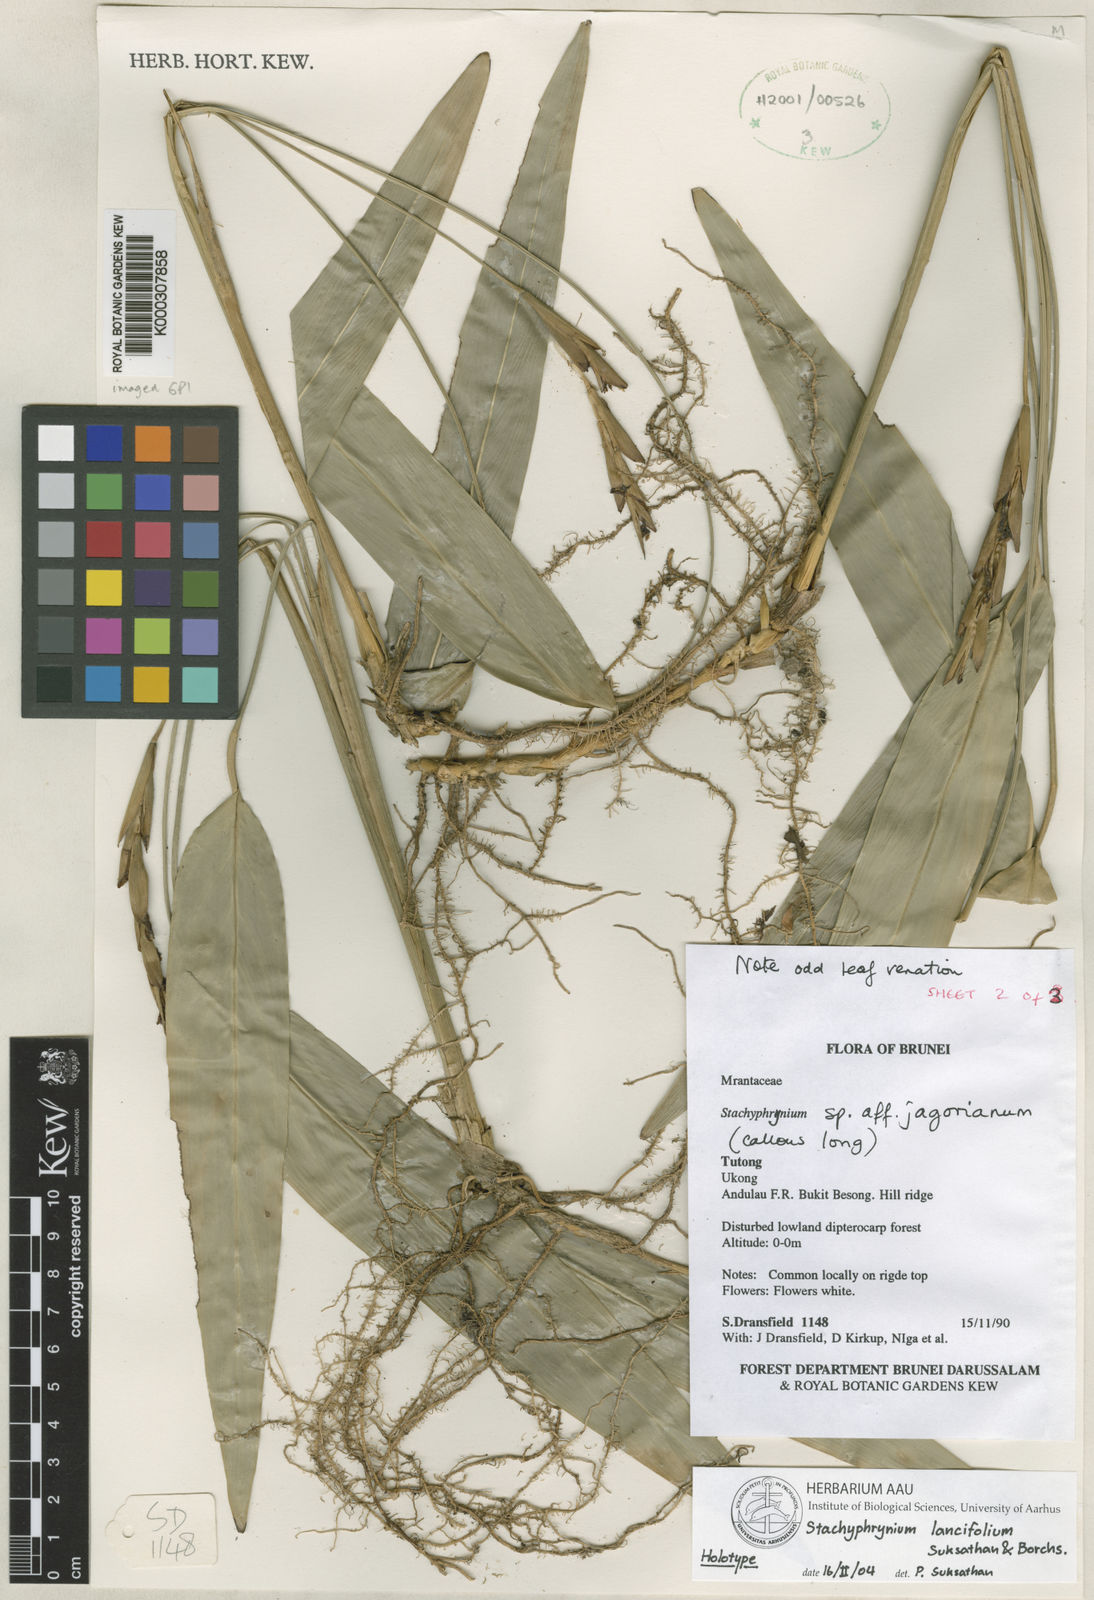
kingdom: Plantae
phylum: Tracheophyta
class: Liliopsida
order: Zingiberales
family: Marantaceae
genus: Stachyphrynium
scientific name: Stachyphrynium lancifolium
